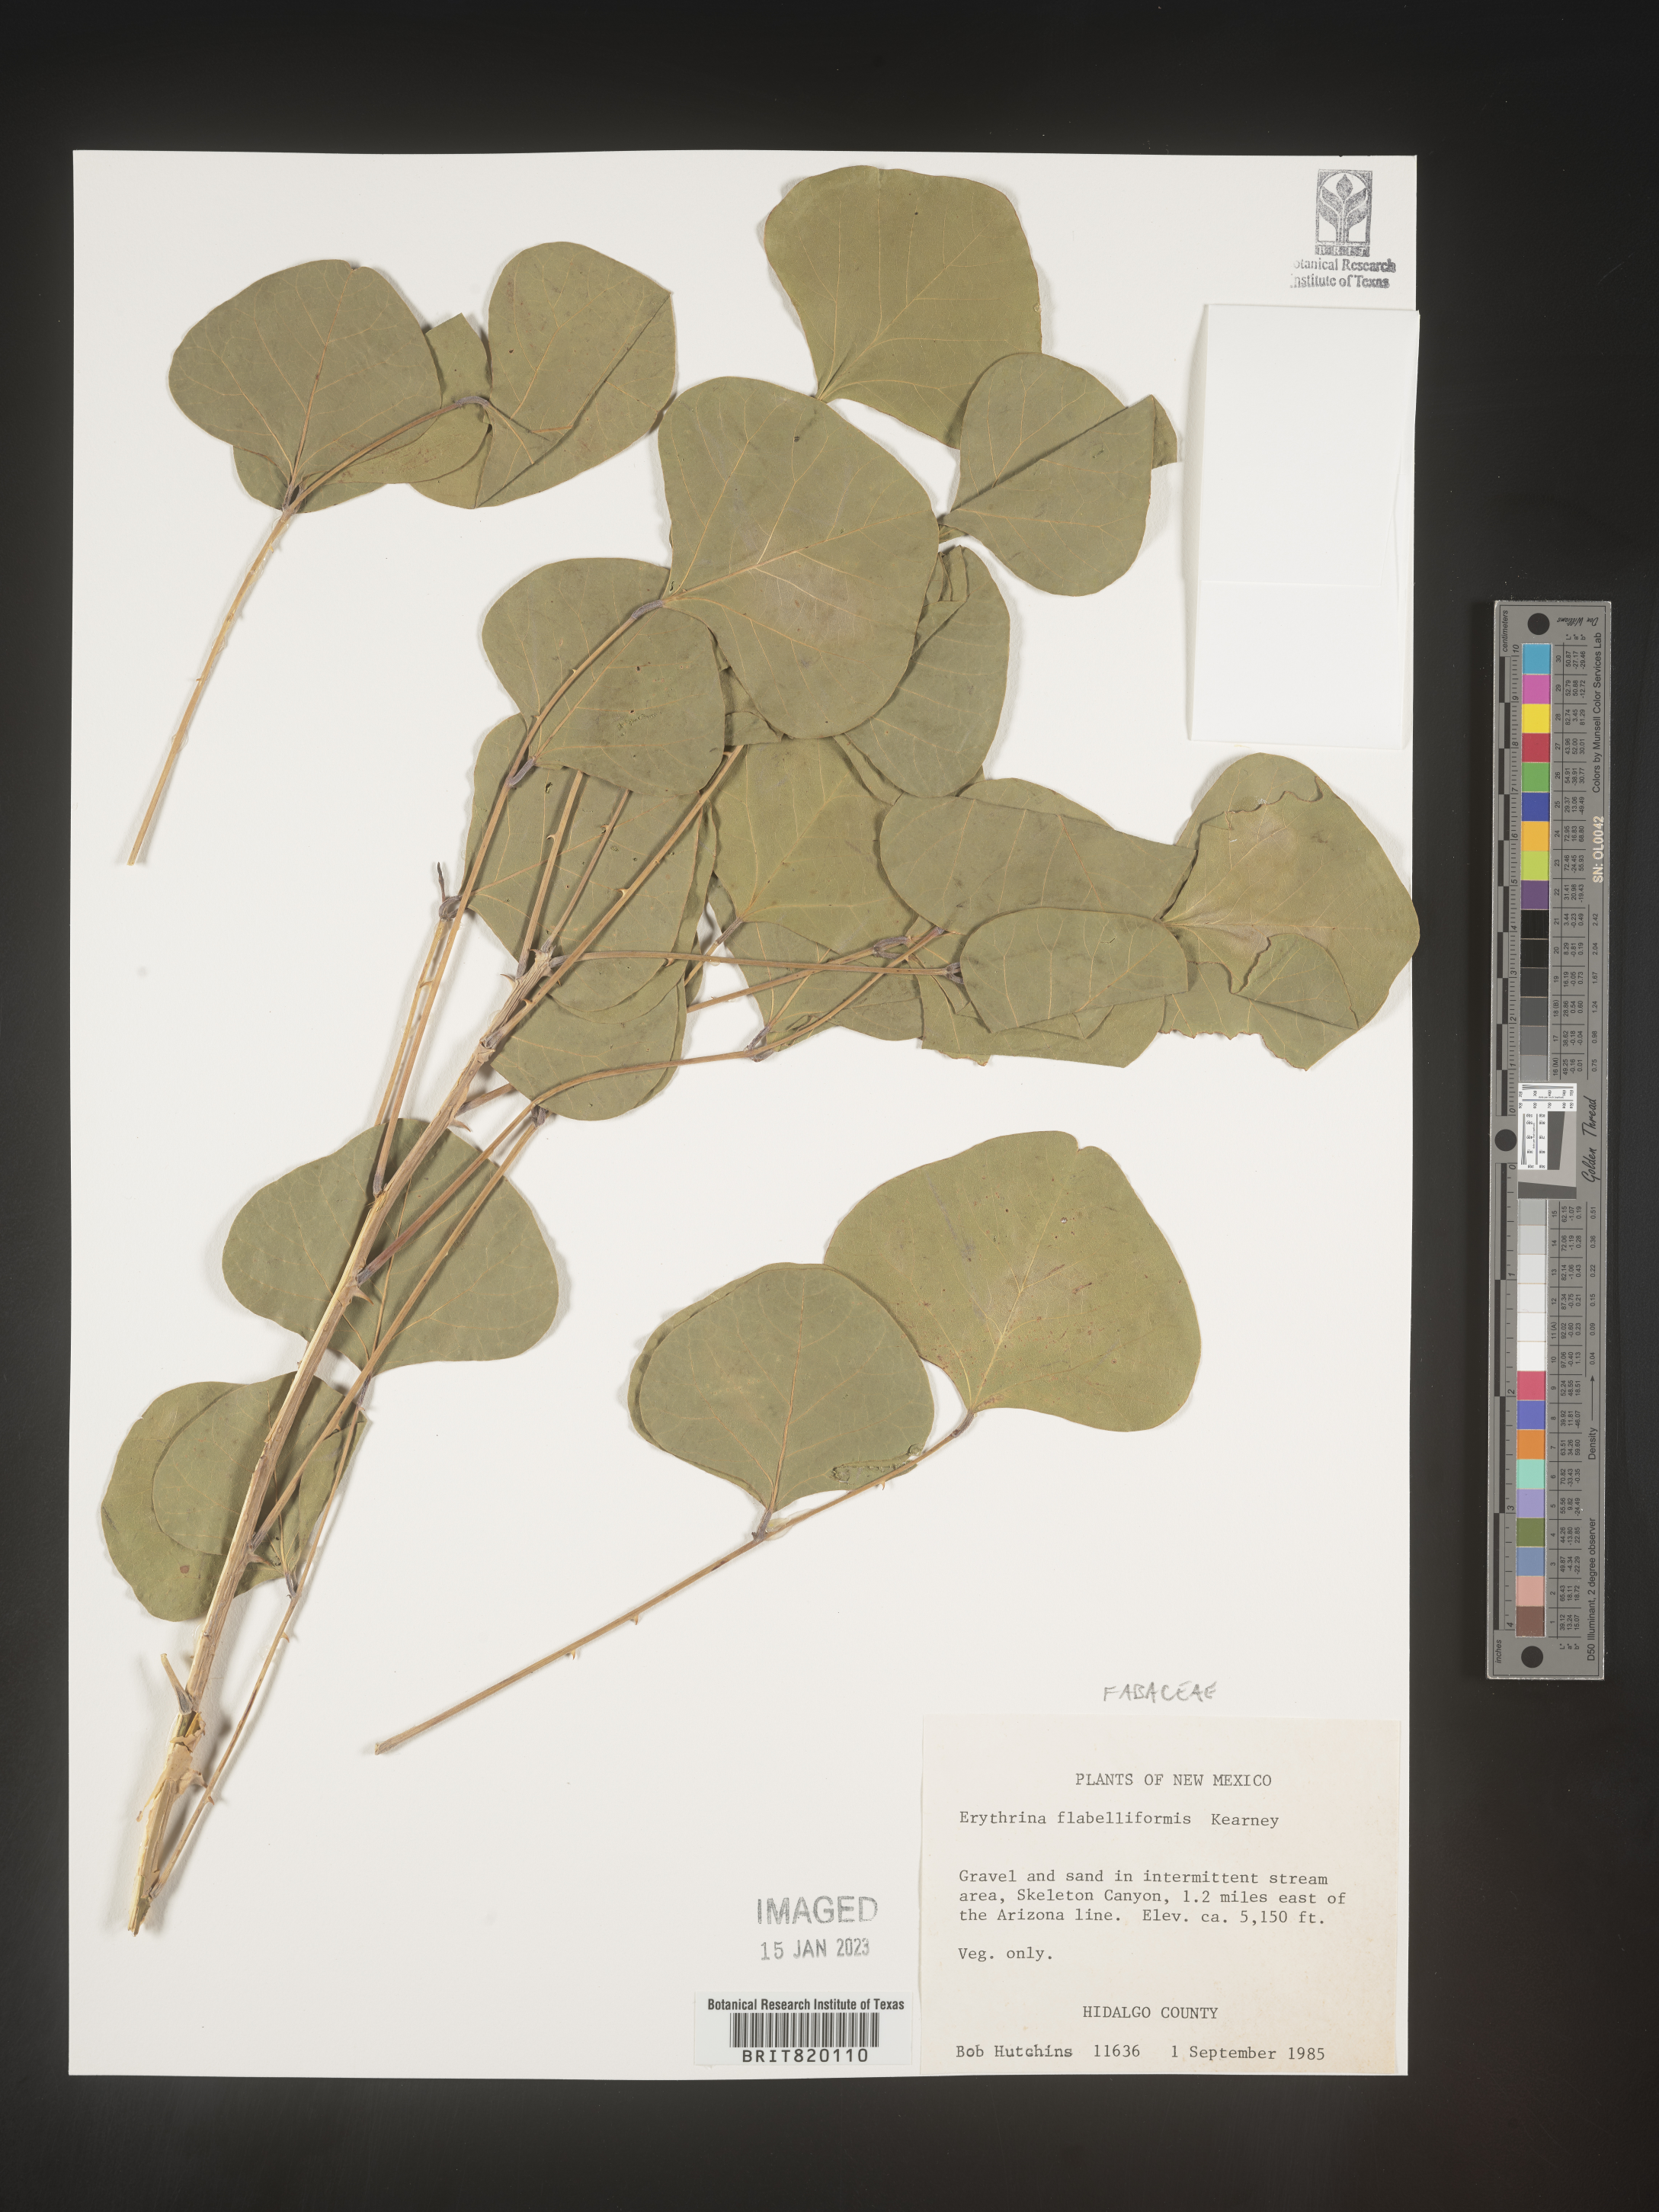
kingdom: Plantae
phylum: Tracheophyta
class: Magnoliopsida
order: Fabales
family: Fabaceae
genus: Erythrina
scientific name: Erythrina
